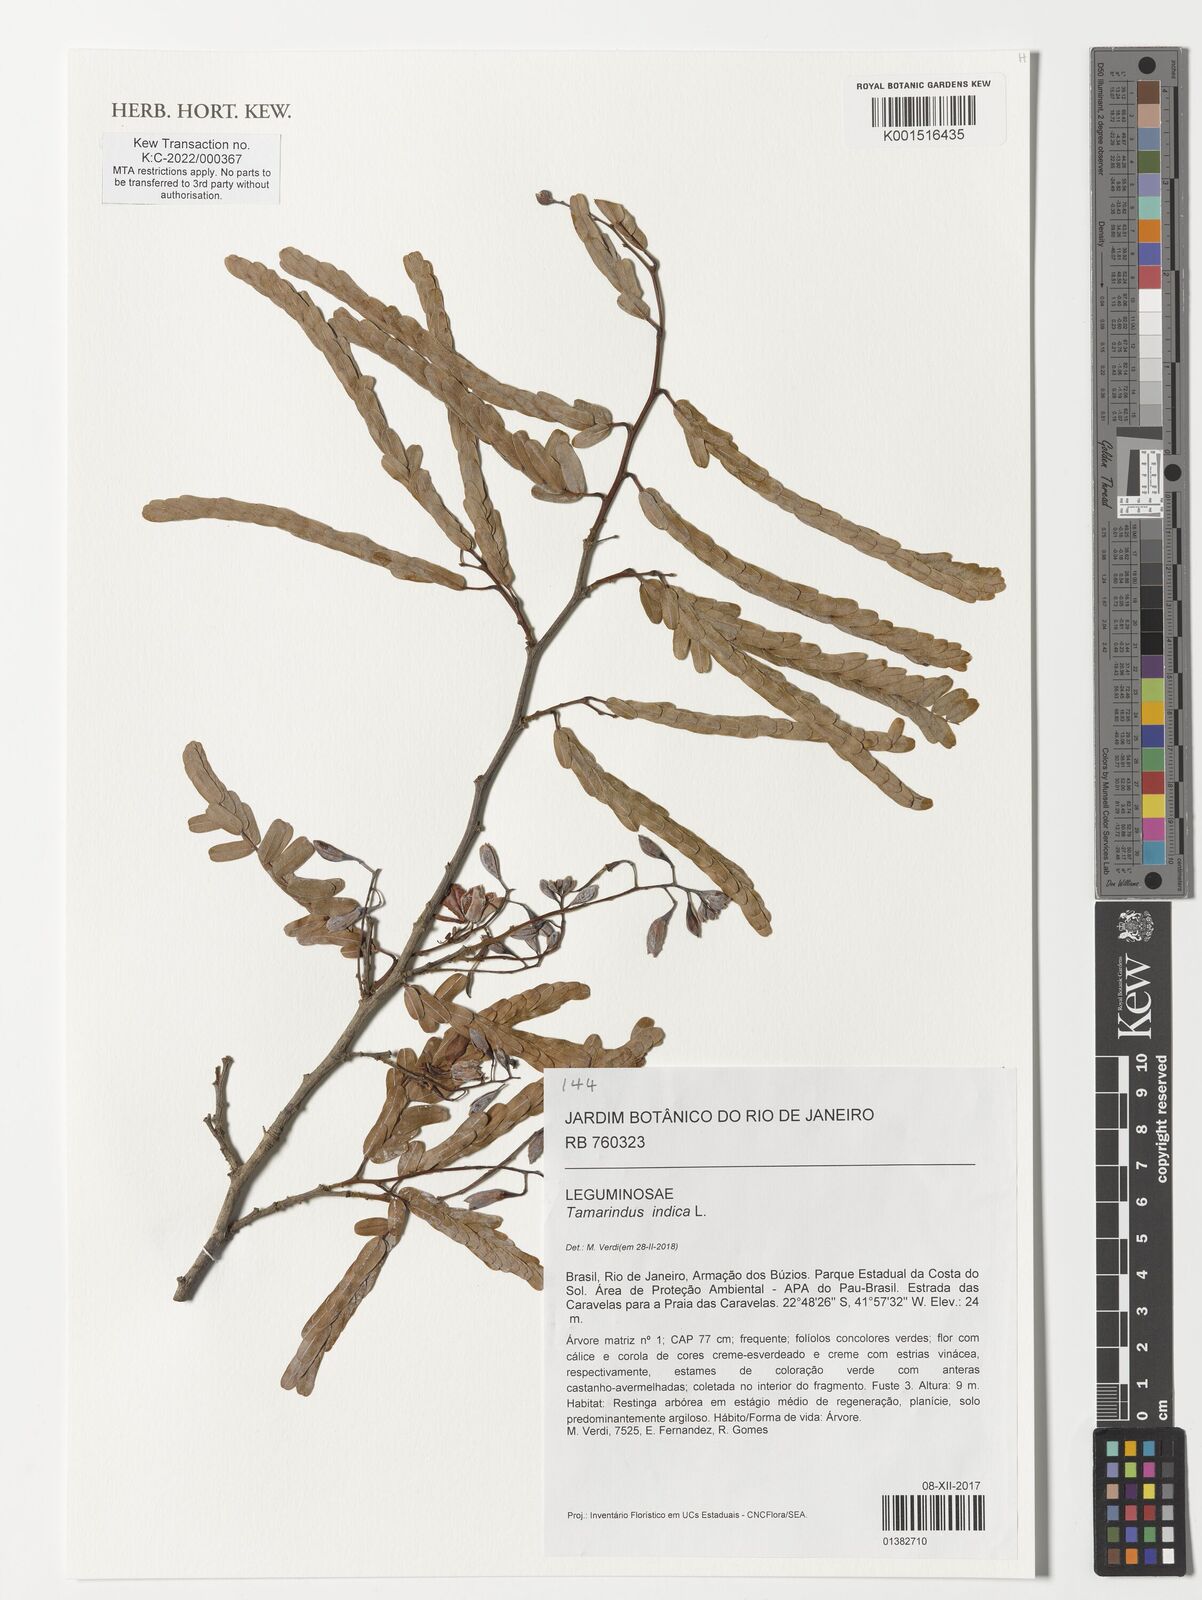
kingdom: Plantae
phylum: Tracheophyta
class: Magnoliopsida
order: Fabales
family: Fabaceae
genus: Tamarindus
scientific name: Tamarindus indica
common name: Tamarind
